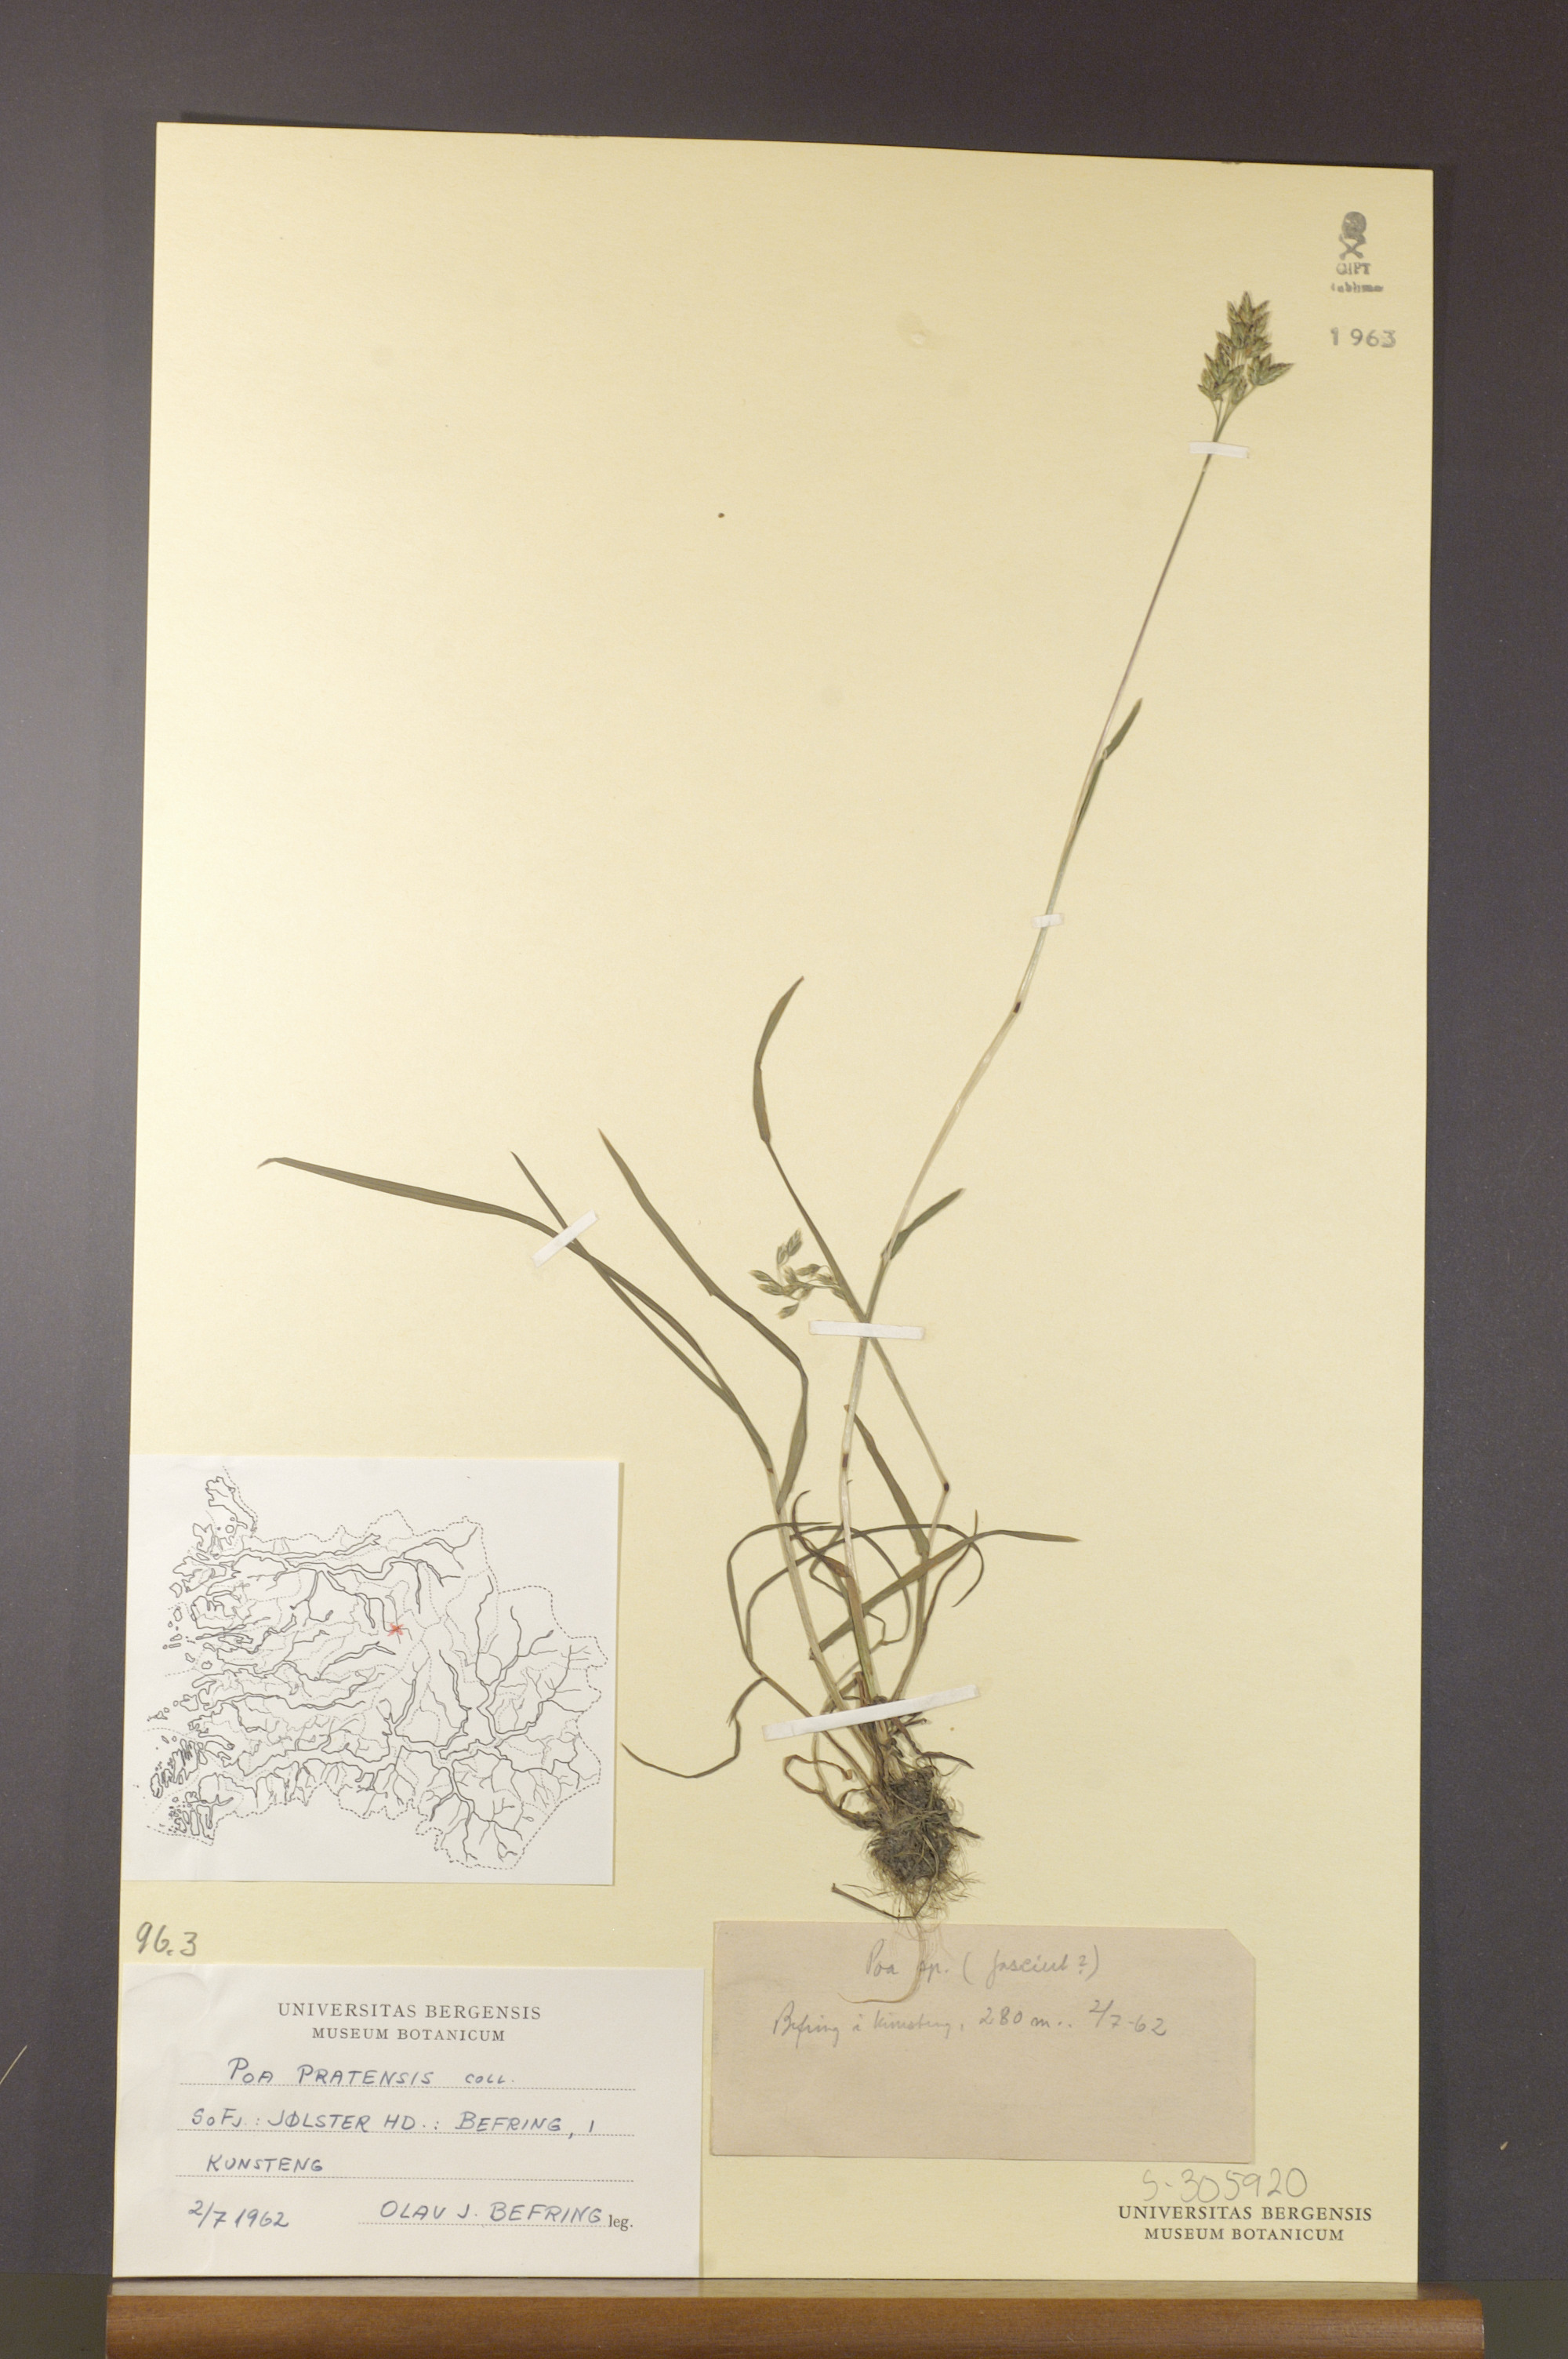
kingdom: Plantae
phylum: Tracheophyta
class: Liliopsida
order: Poales
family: Poaceae
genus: Poa
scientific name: Poa pratensis
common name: Kentucky bluegrass
